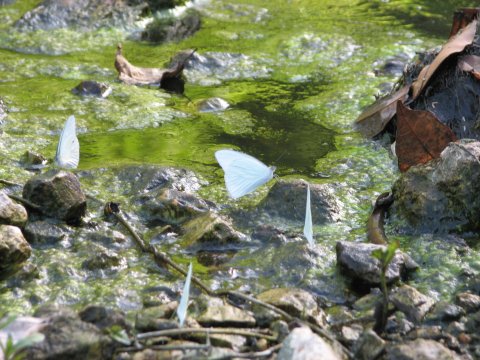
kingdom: Animalia
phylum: Arthropoda
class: Insecta
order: Lepidoptera
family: Pieridae
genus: Glutophrissa
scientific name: Glutophrissa drusilla
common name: Florida White
